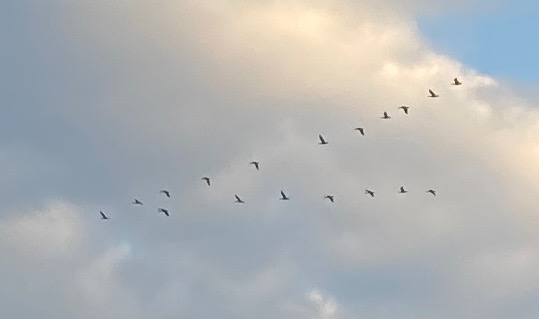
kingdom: Animalia
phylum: Chordata
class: Aves
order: Anseriformes
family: Anatidae
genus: Anser
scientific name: Anser anser
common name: Grågås
